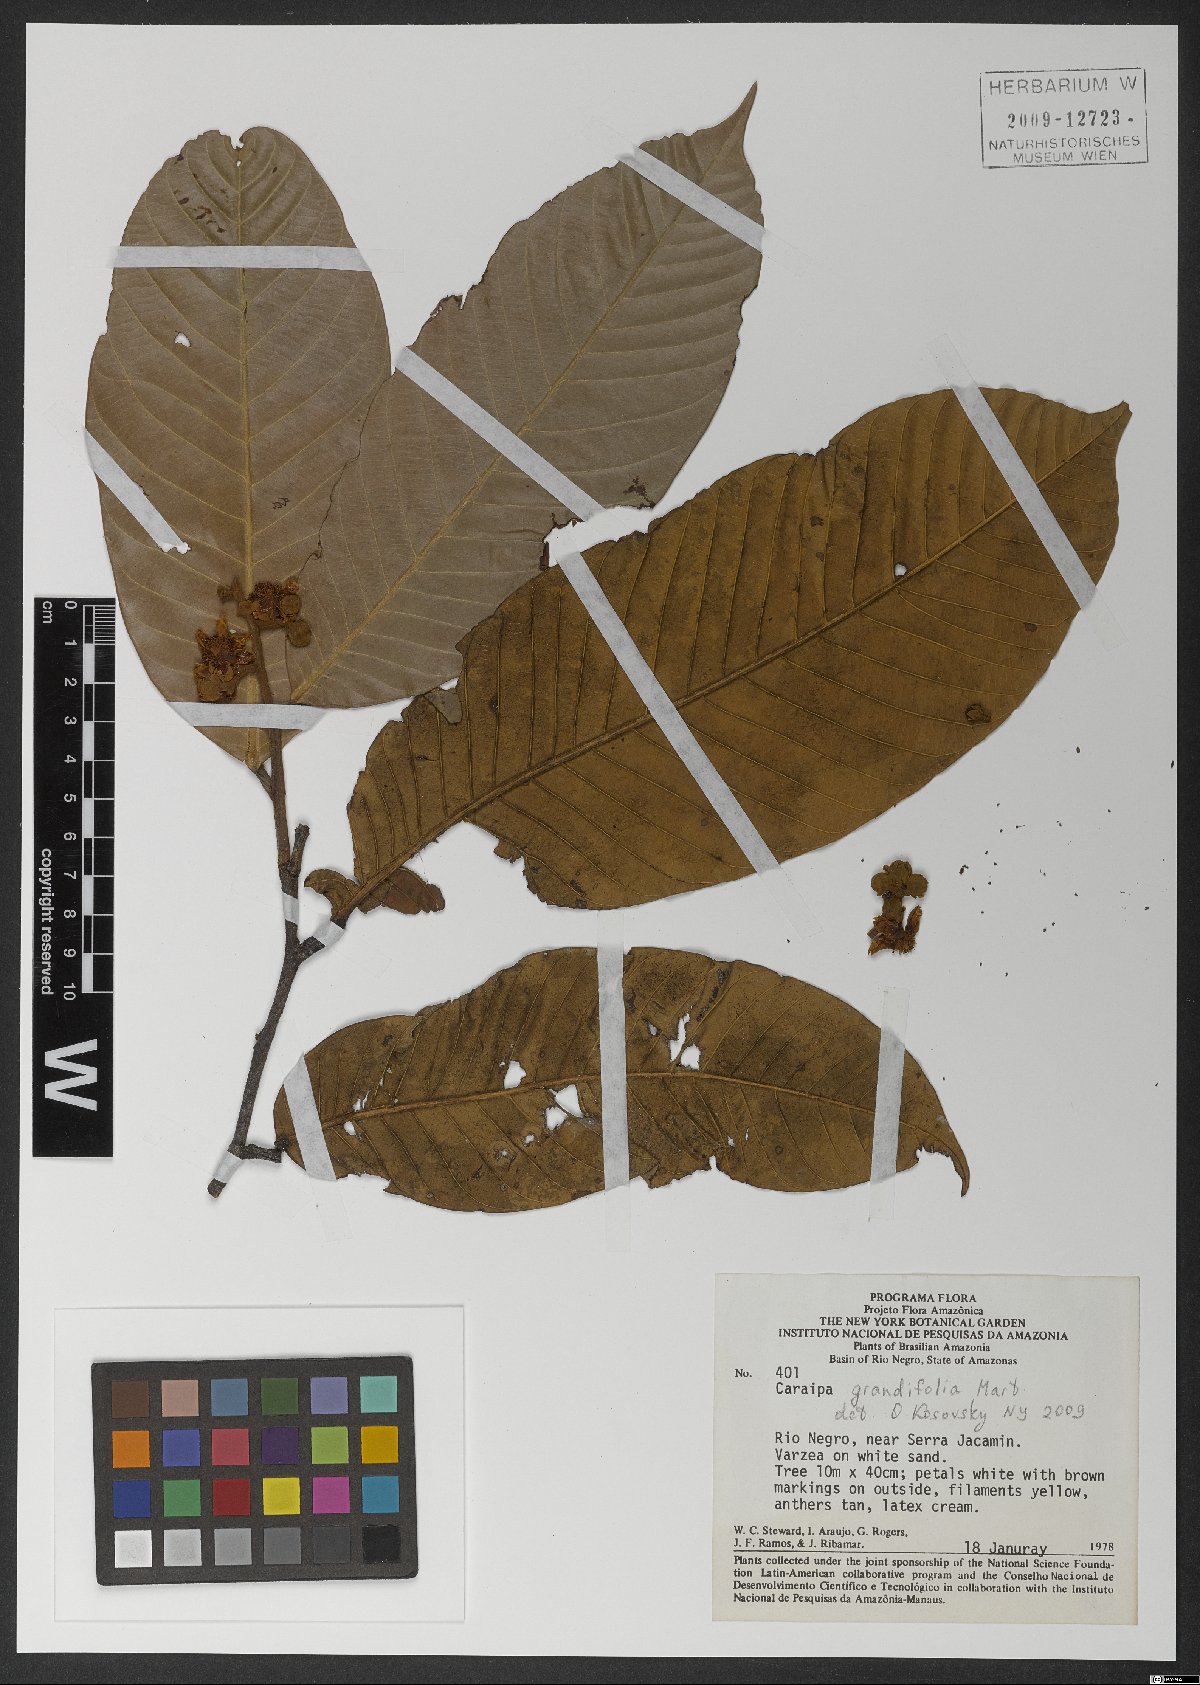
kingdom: Plantae
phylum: Tracheophyta
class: Magnoliopsida
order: Malpighiales
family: Calophyllaceae
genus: Caraipa
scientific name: Caraipa grandifolia
